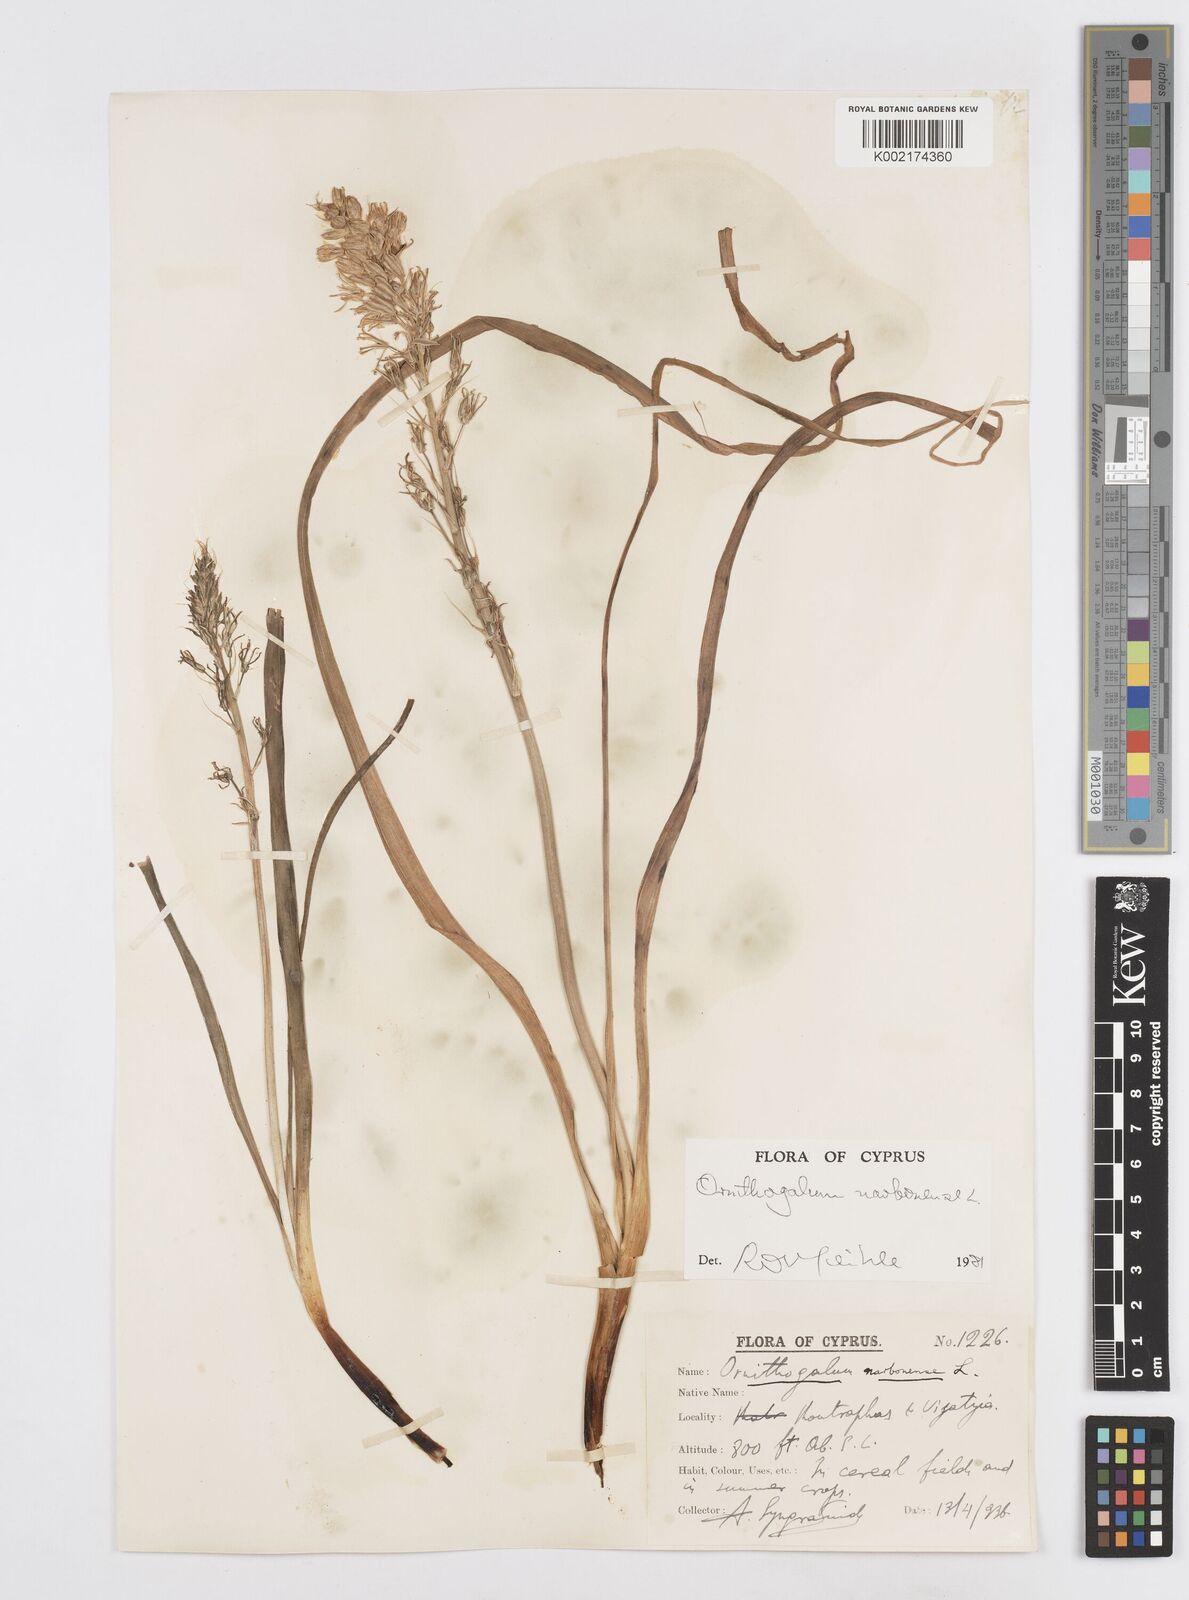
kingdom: Plantae
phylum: Tracheophyta
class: Liliopsida
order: Asparagales
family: Asparagaceae
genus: Ornithogalum
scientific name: Ornithogalum narbonense
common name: Bath-asparagus
